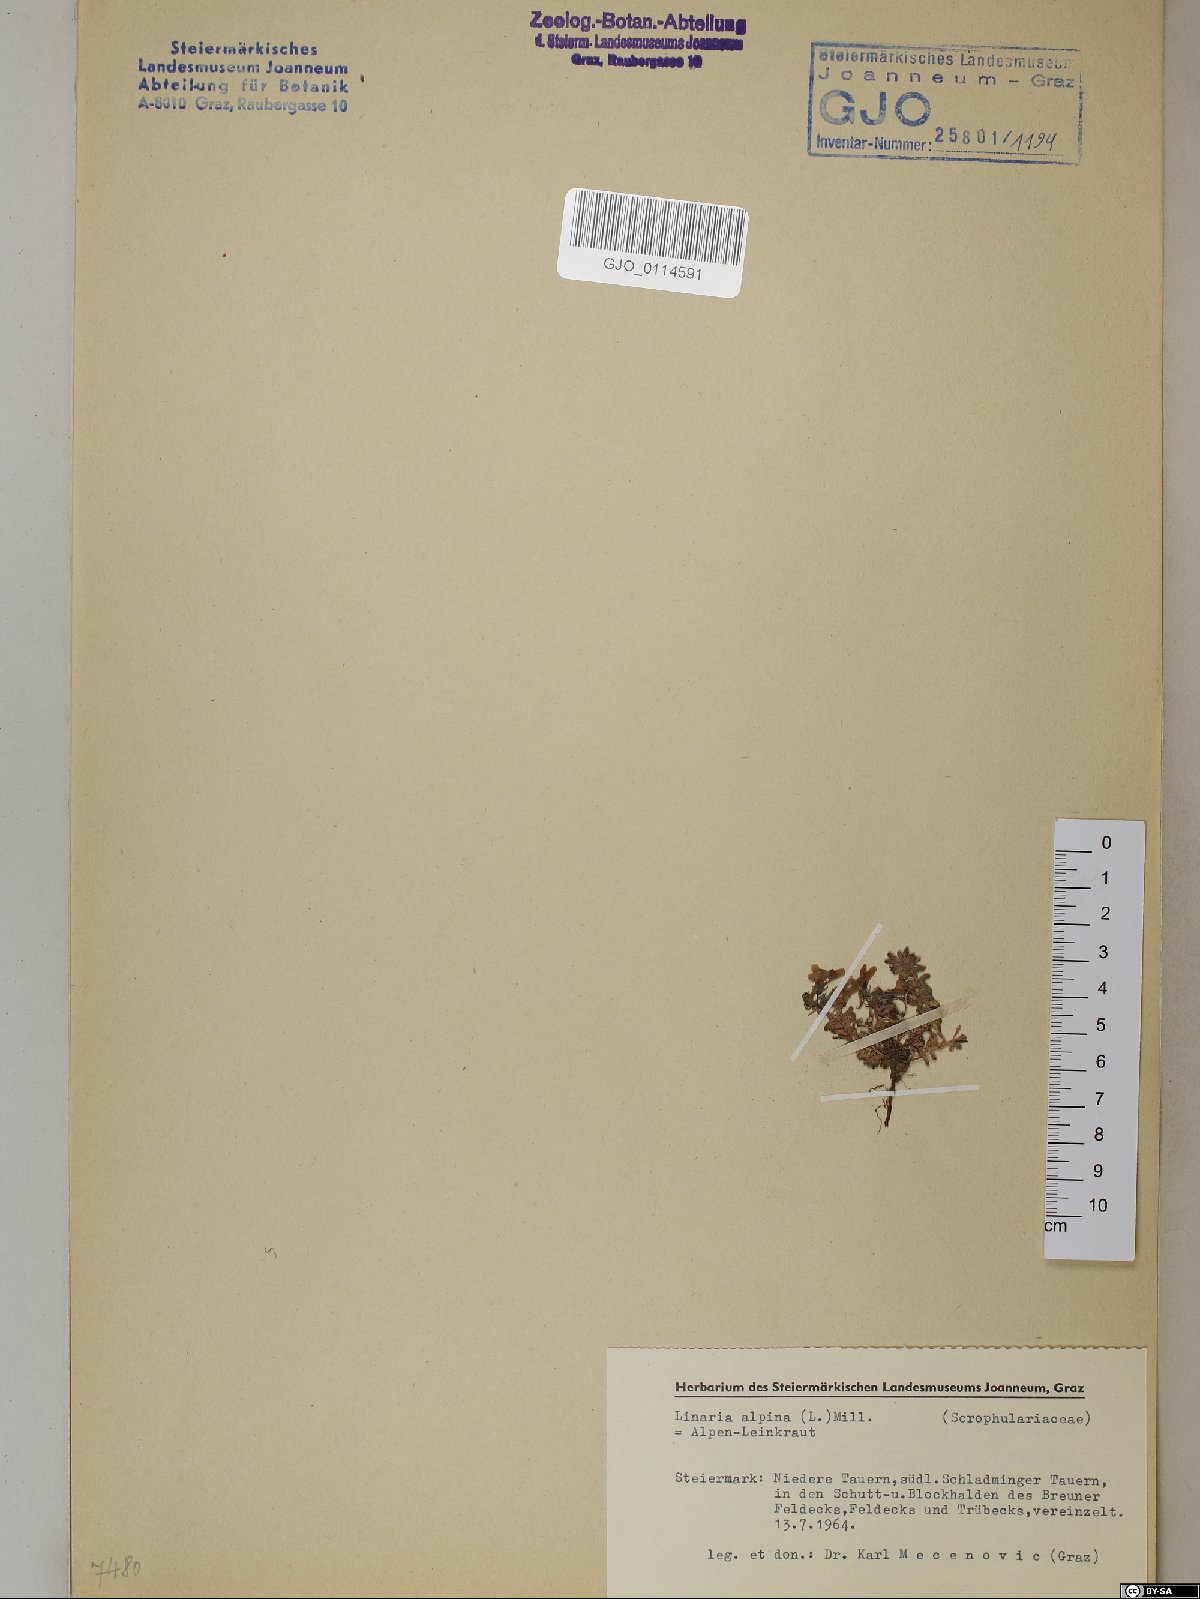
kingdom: Plantae
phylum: Tracheophyta
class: Magnoliopsida
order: Lamiales
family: Plantaginaceae
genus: Linaria
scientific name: Linaria alpina
